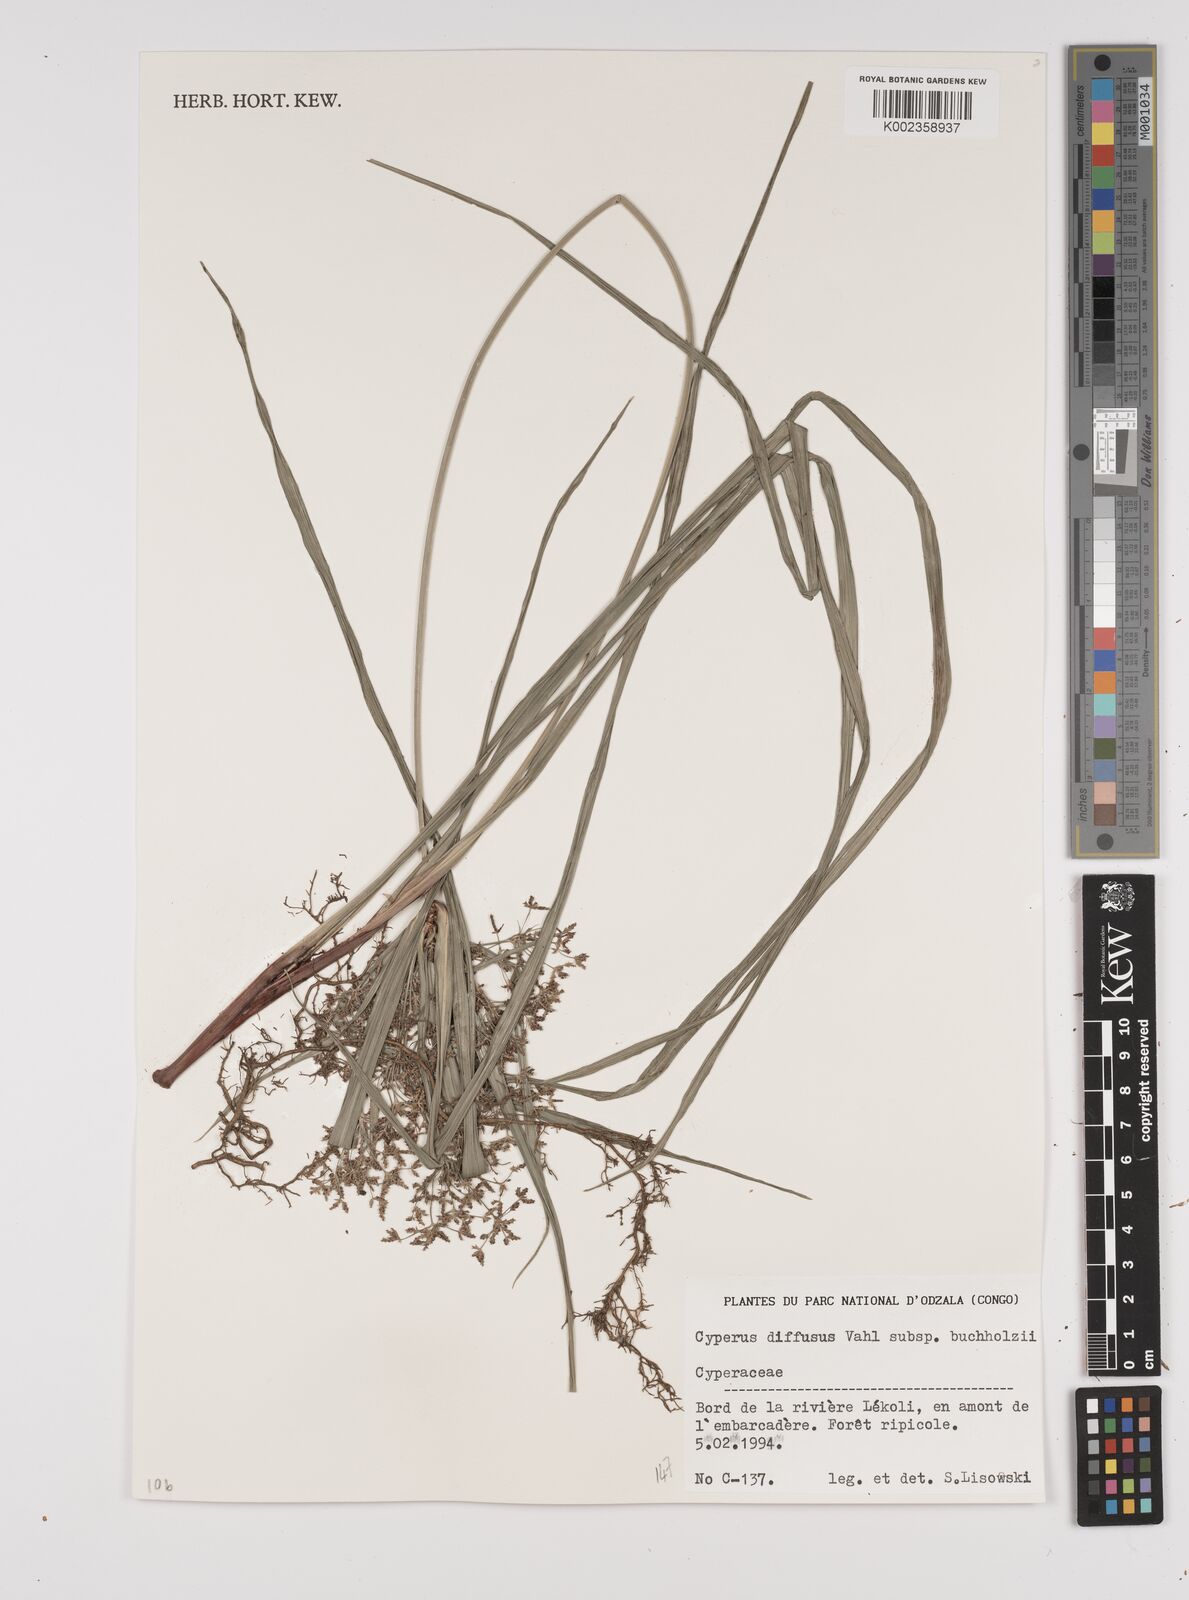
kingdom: Plantae
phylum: Tracheophyta
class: Liliopsida
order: Poales
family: Cyperaceae
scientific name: Cyperaceae
